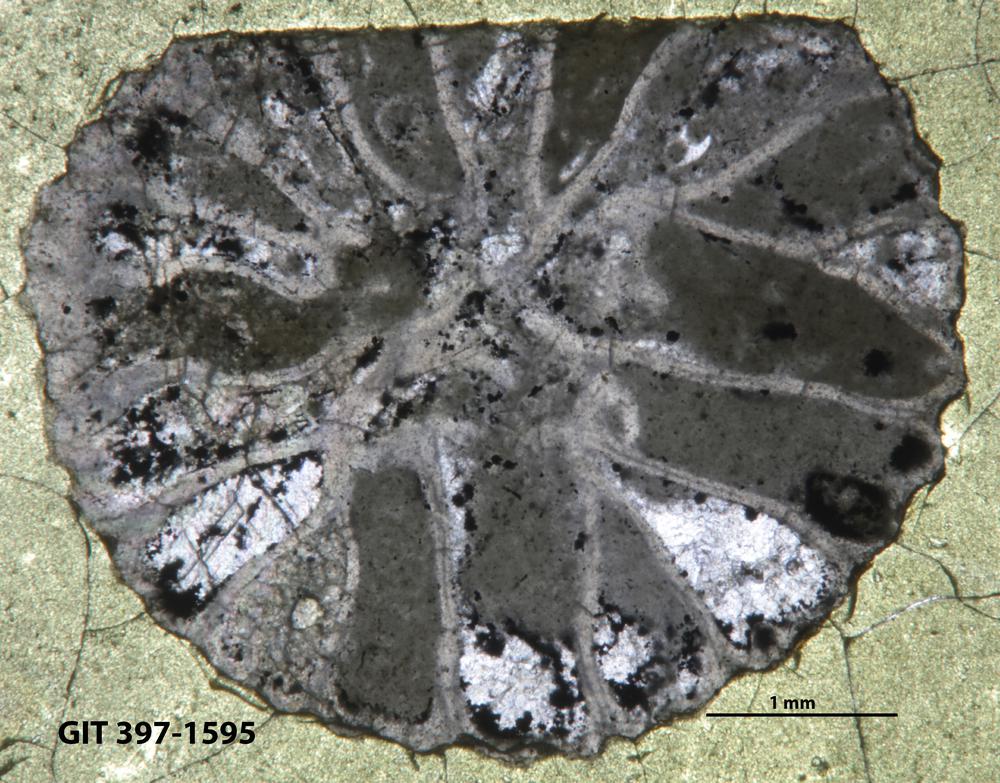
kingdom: Animalia
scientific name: Animalia
